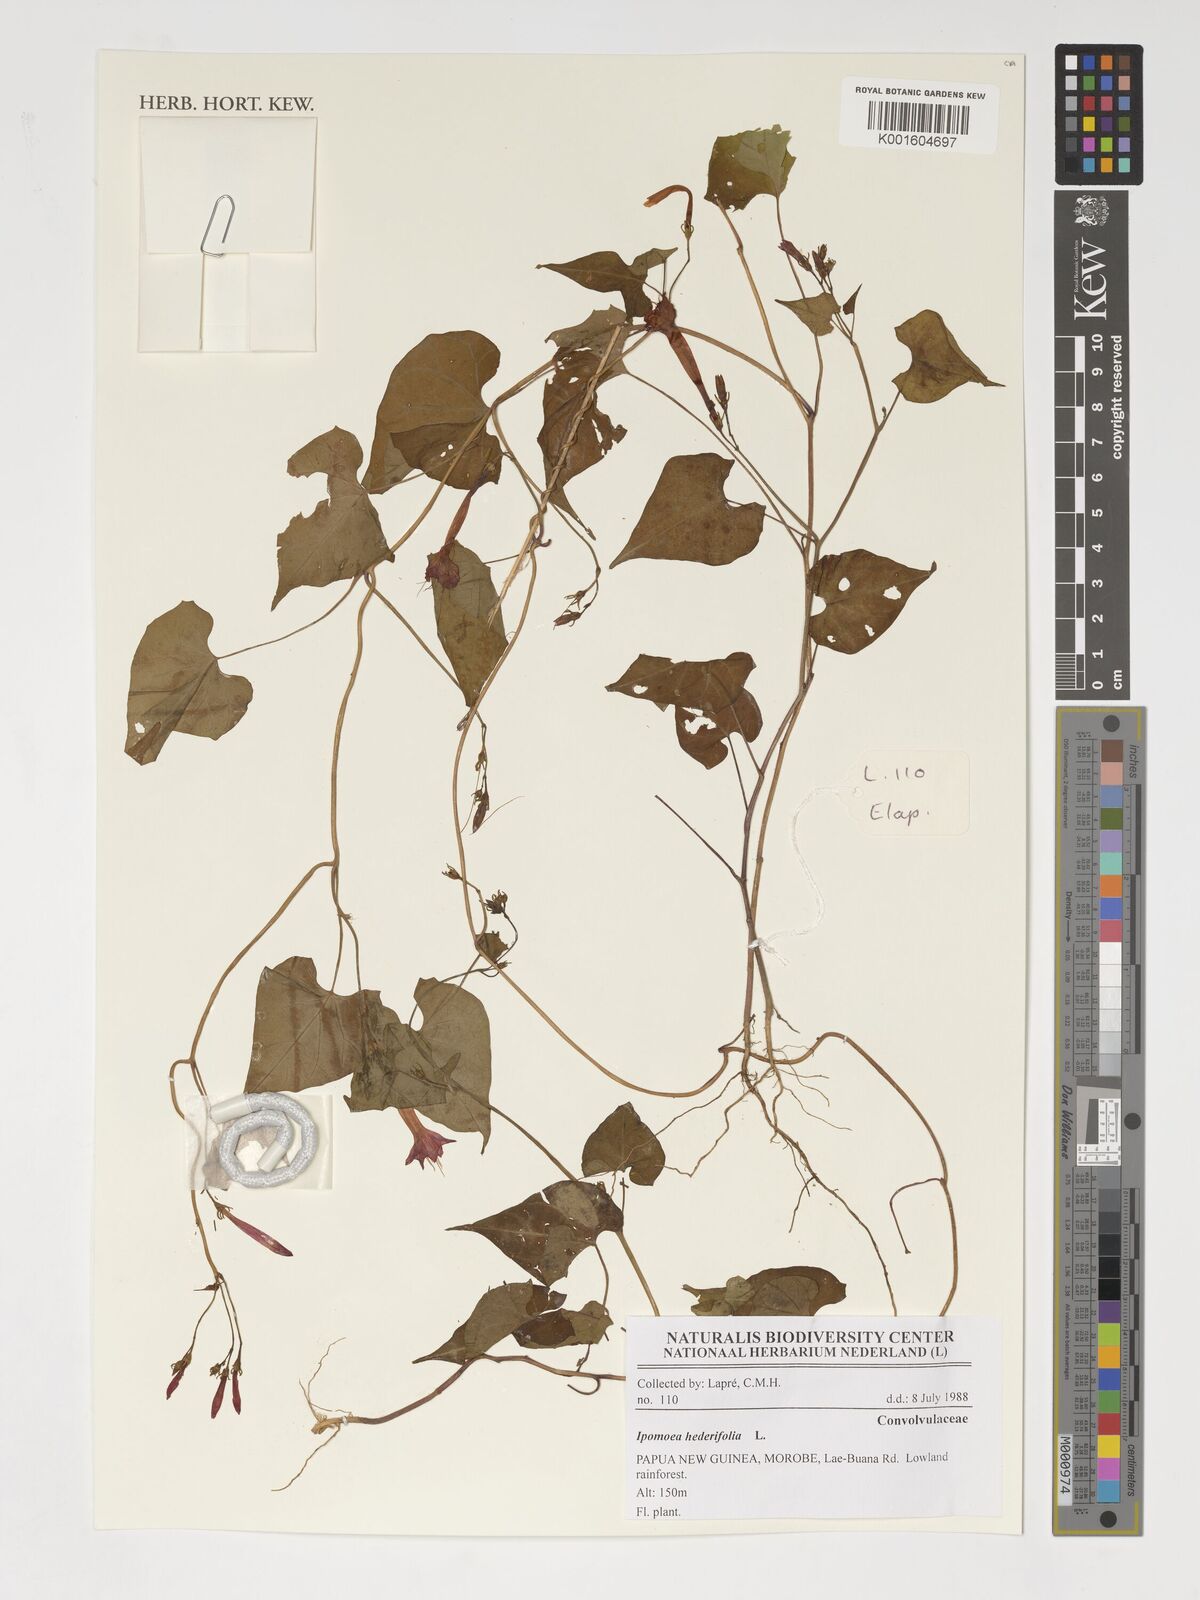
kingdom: Plantae
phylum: Tracheophyta
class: Magnoliopsida
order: Solanales
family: Convolvulaceae
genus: Ipomoea
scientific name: Ipomoea hederifolia
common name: Ivy-leaf morning-glory
